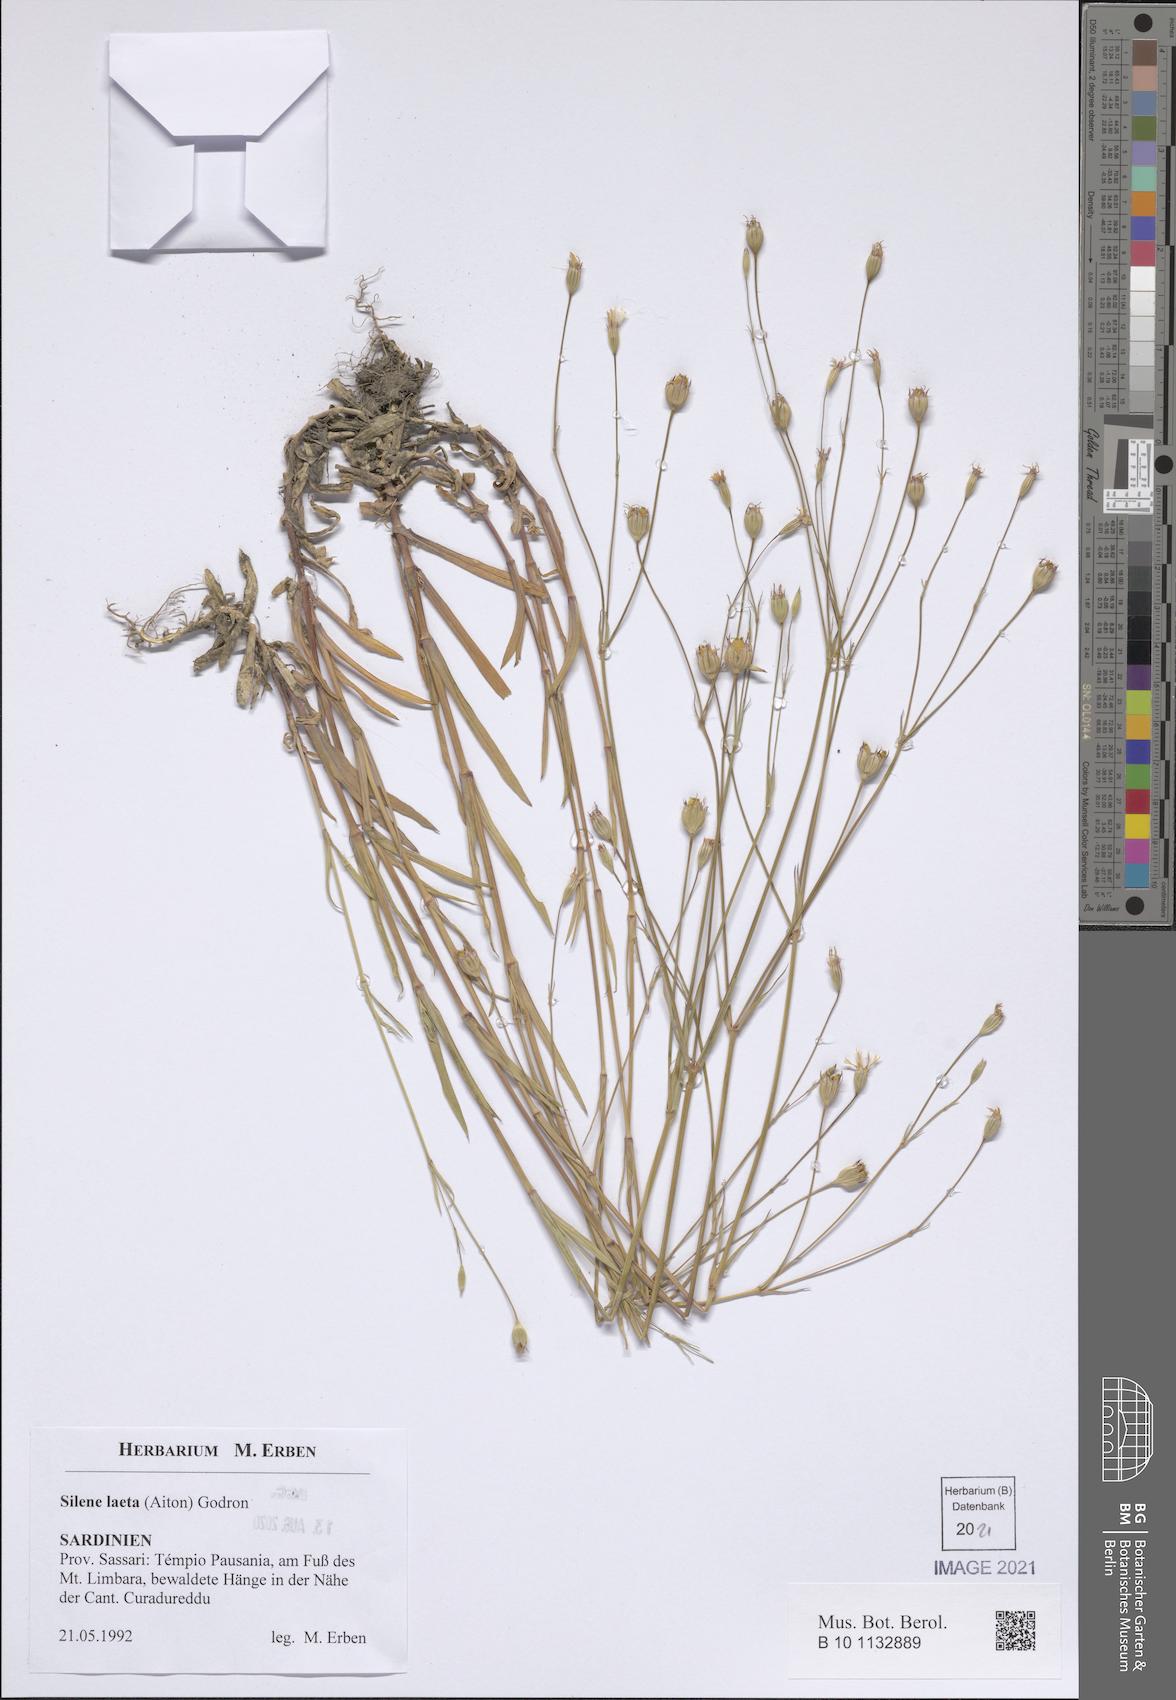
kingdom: Plantae
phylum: Tracheophyta
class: Magnoliopsida
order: Caryophyllales
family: Caryophyllaceae
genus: Eudianthe
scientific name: Eudianthe laeta
